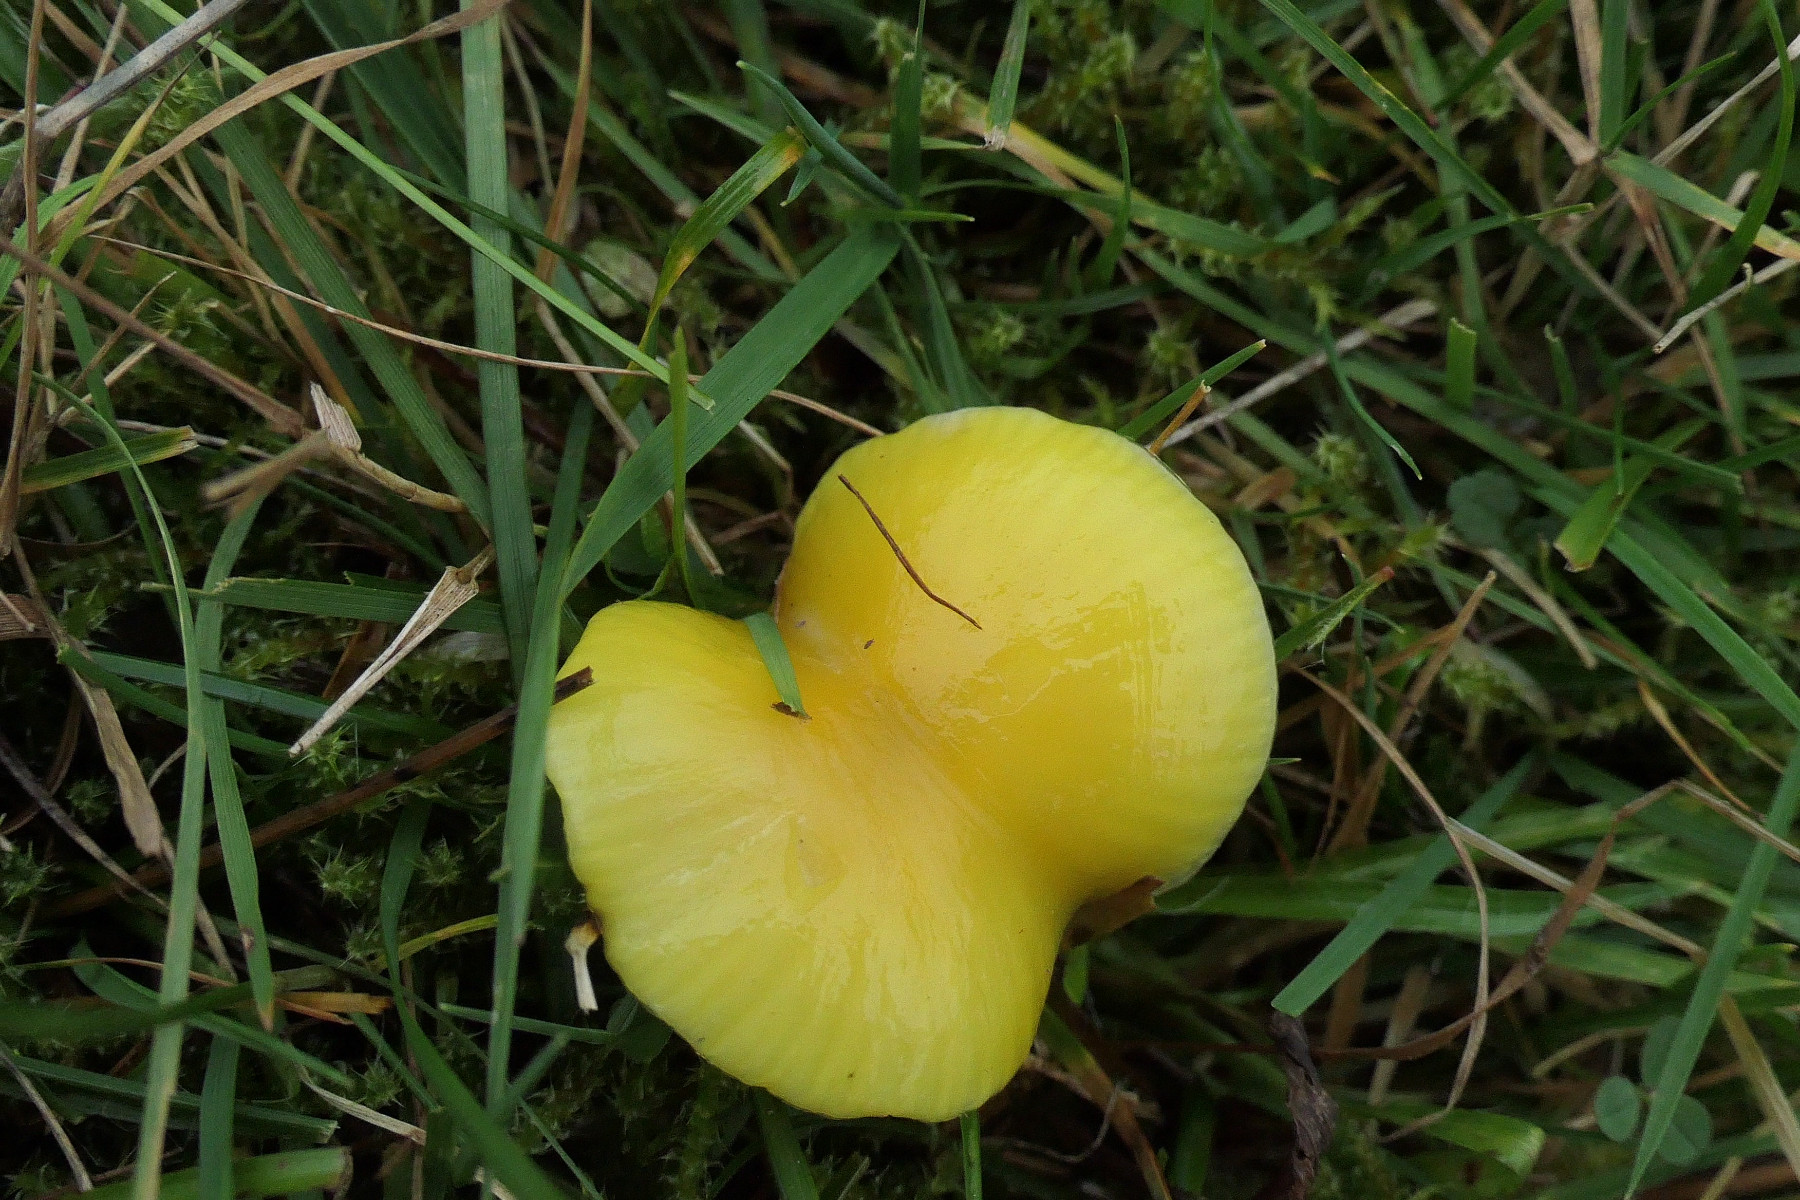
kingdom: Fungi
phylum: Basidiomycota
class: Agaricomycetes
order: Agaricales
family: Hygrophoraceae
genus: Hygrocybe
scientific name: Hygrocybe chlorophana
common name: gul vokshat
